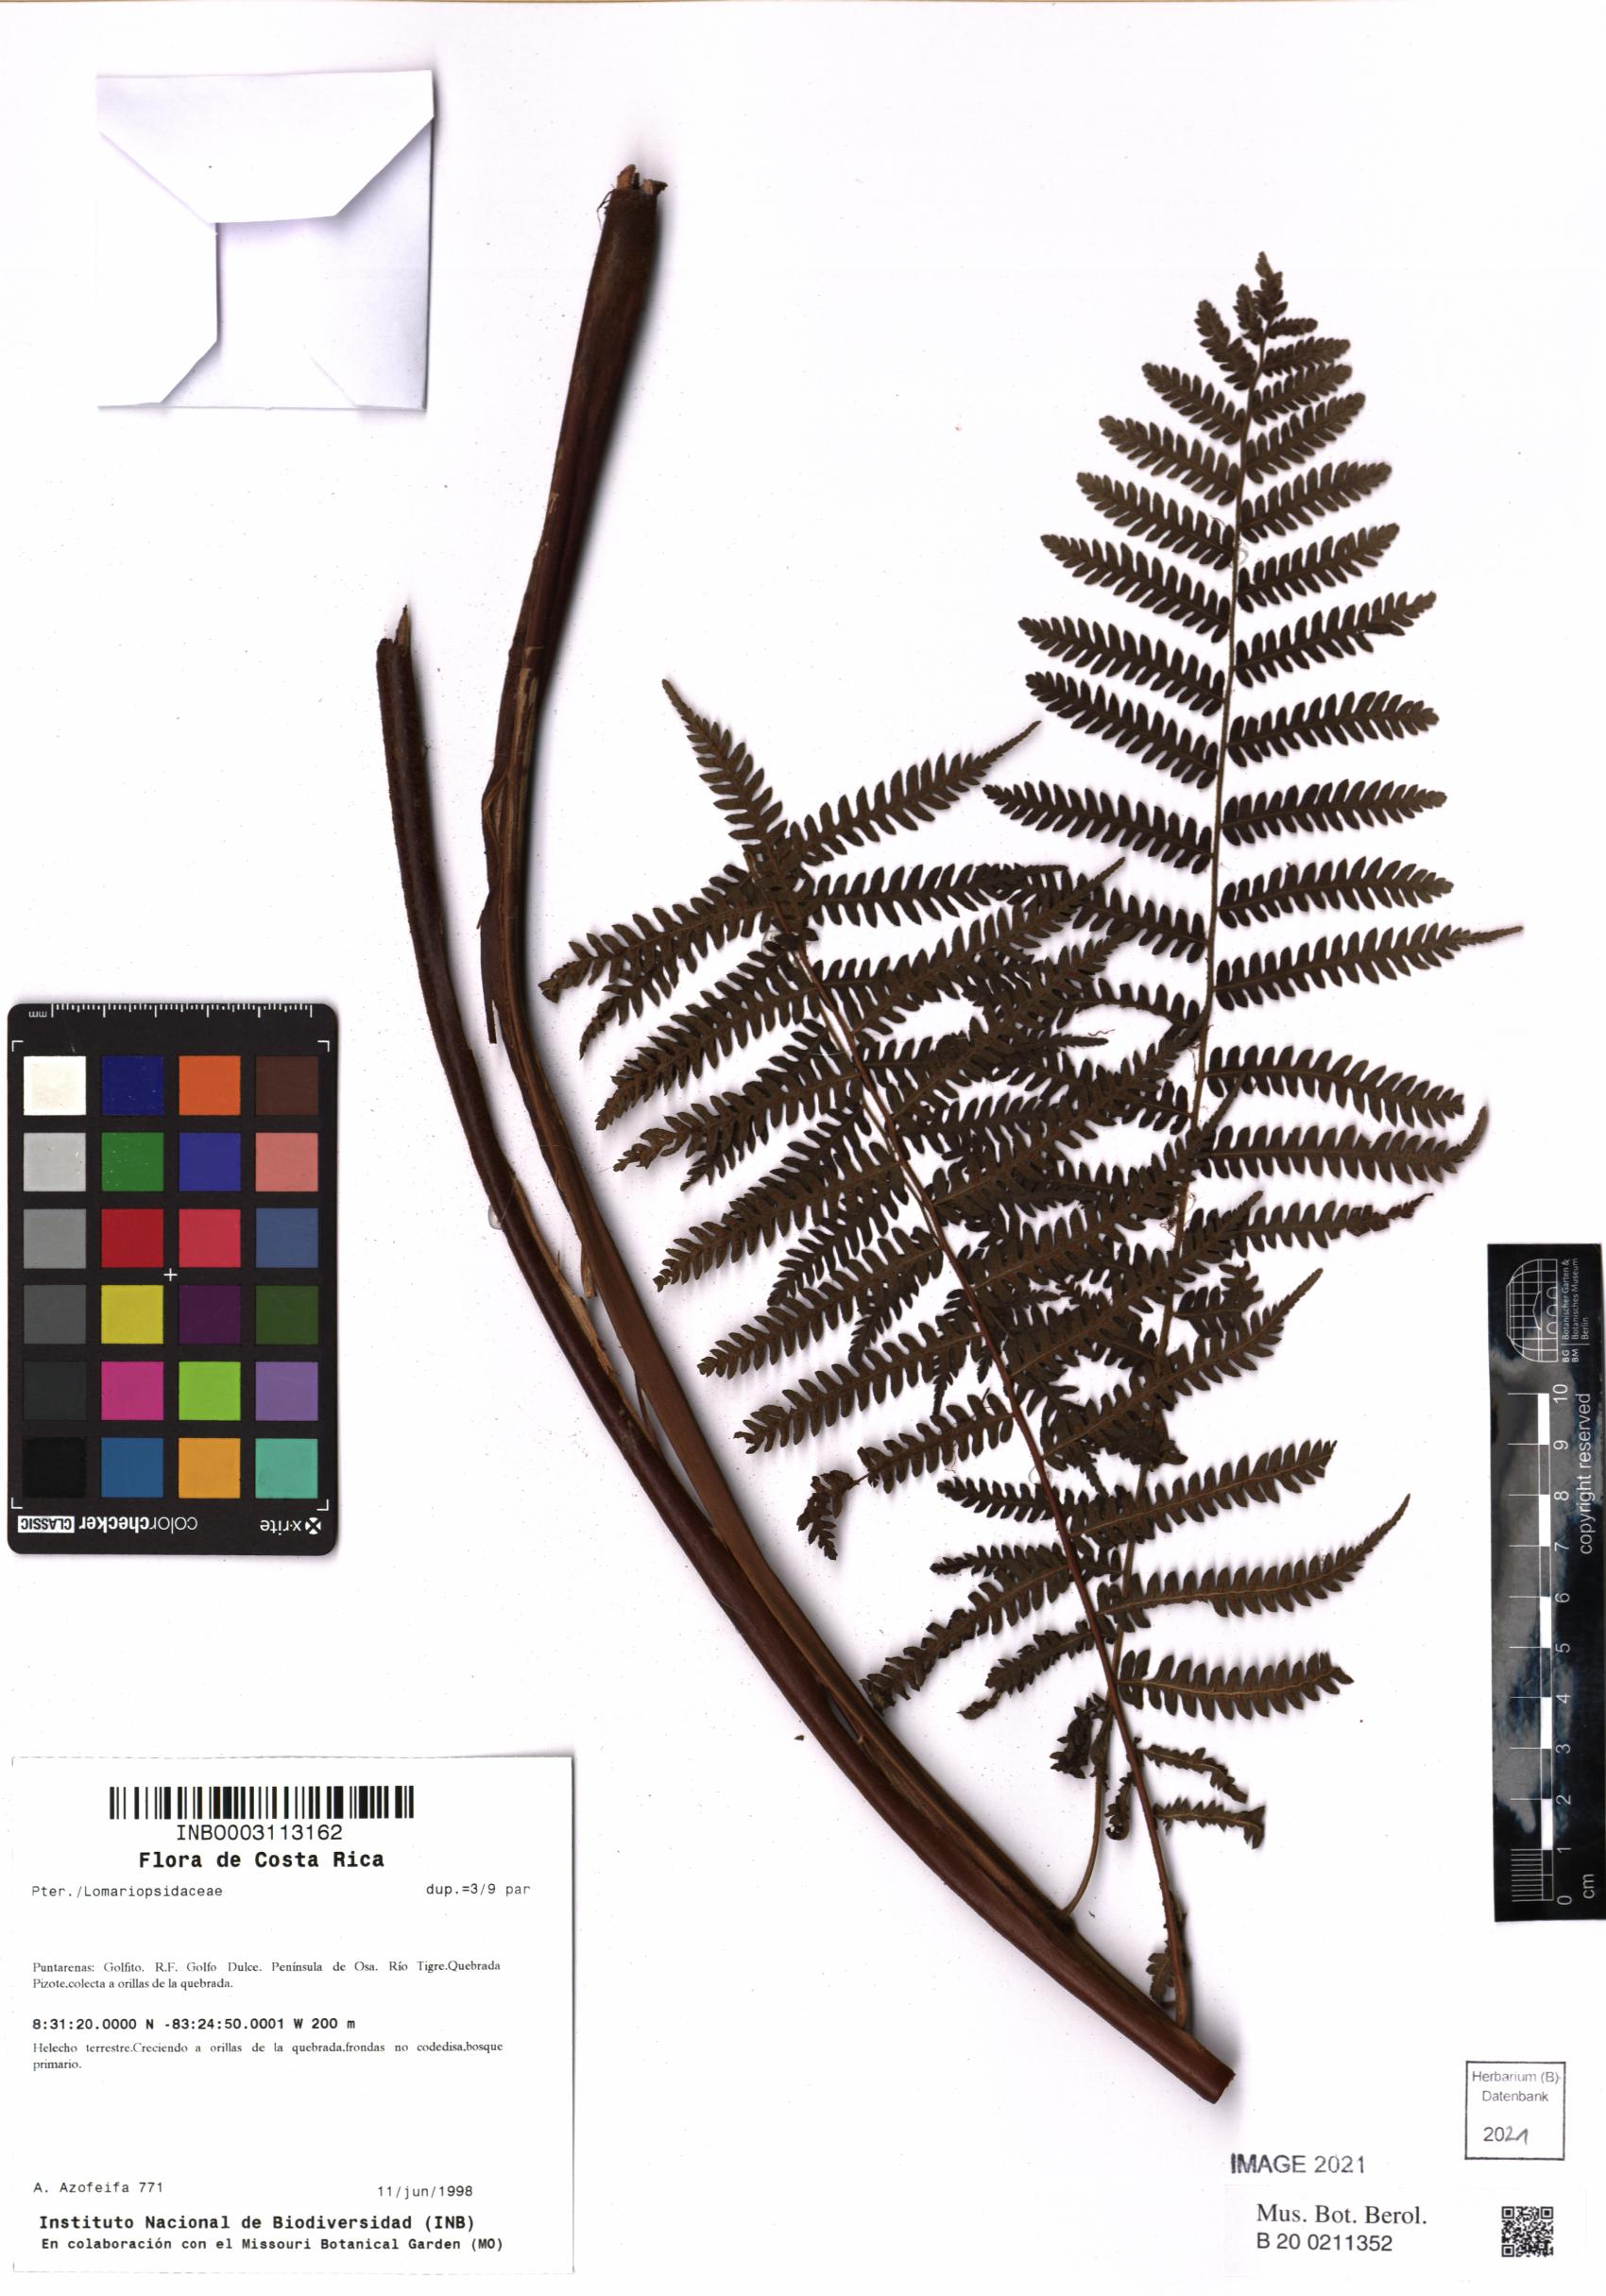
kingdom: Plantae
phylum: Tracheophyta
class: Polypodiopsida
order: Cyatheales
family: Cyatheaceae
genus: Cyathea
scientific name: Cyathea
